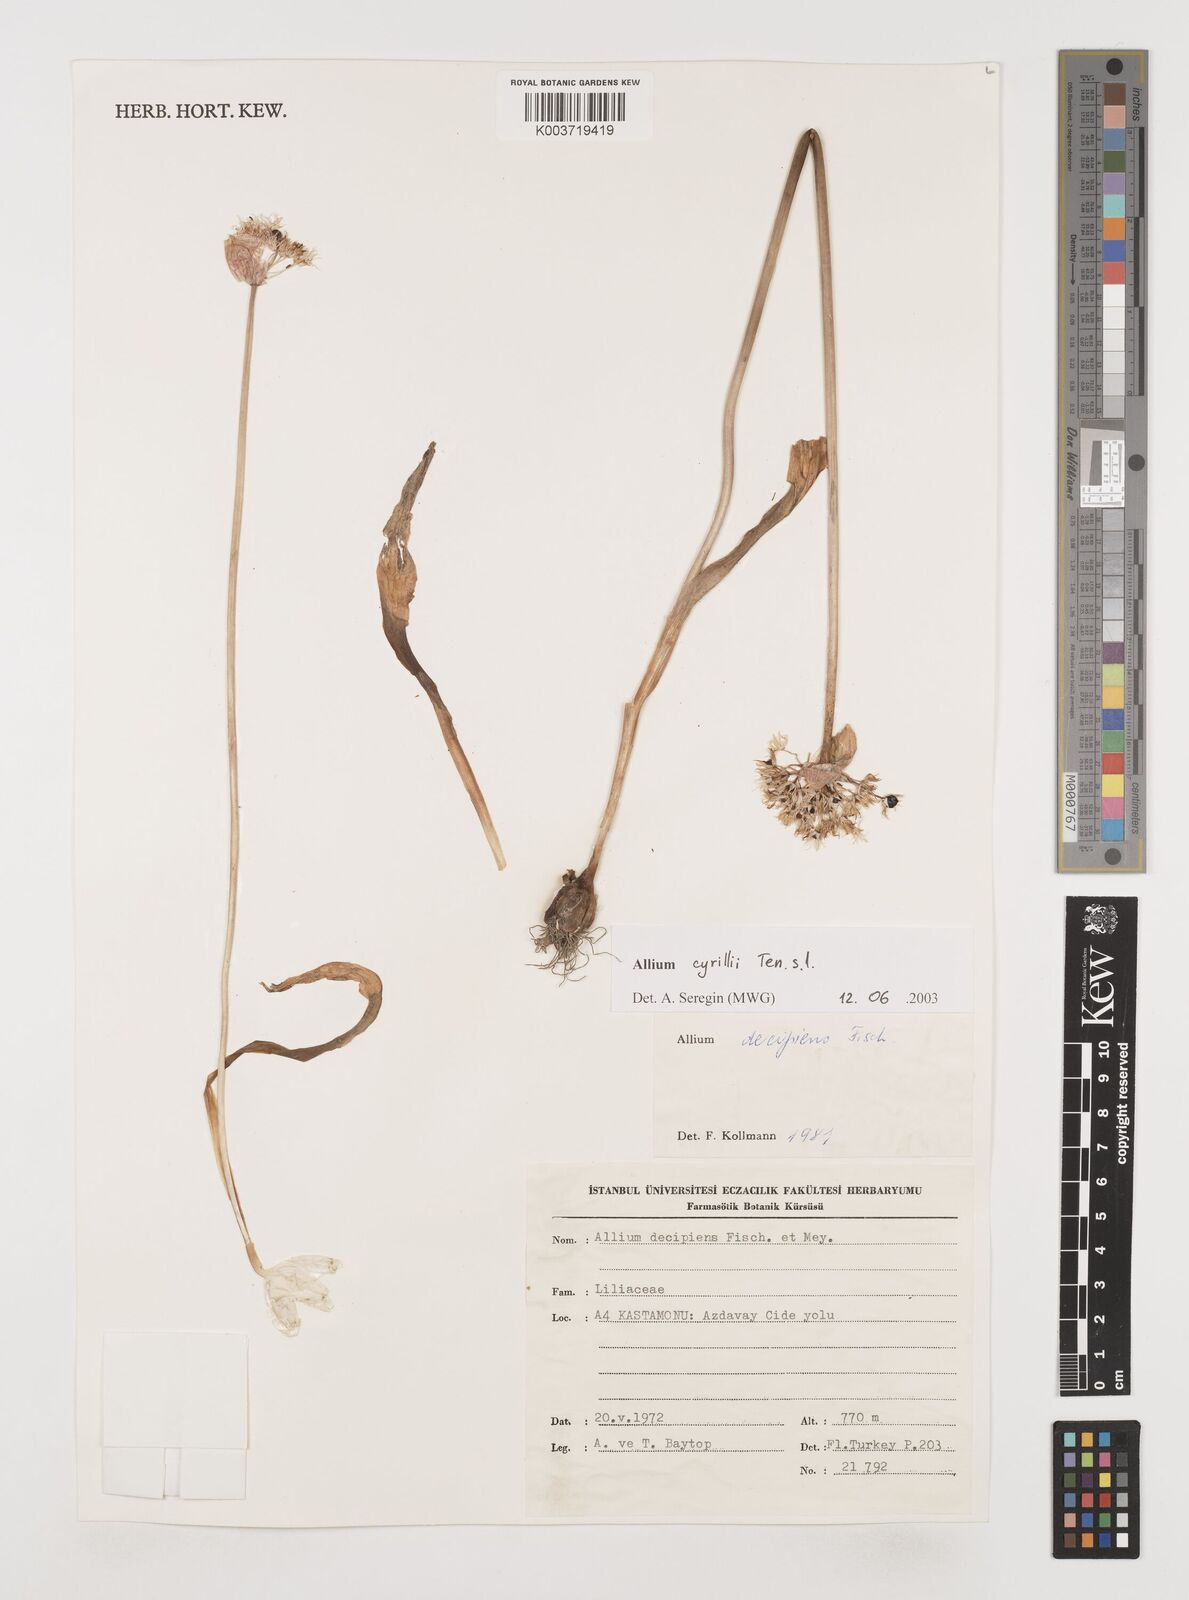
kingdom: Plantae
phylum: Tracheophyta
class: Liliopsida
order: Asparagales
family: Amaryllidaceae
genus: Allium
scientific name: Allium cyrilli
